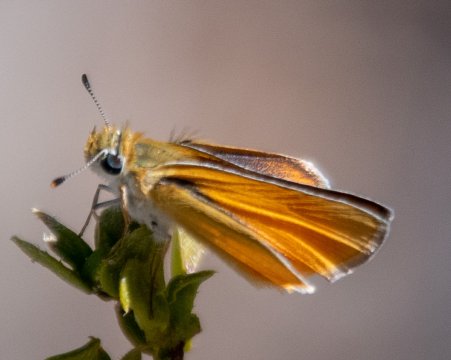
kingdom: Animalia
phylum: Arthropoda
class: Insecta
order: Lepidoptera
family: Hesperiidae
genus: Copaeodes
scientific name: Copaeodes minima
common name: Southern Skipperling
